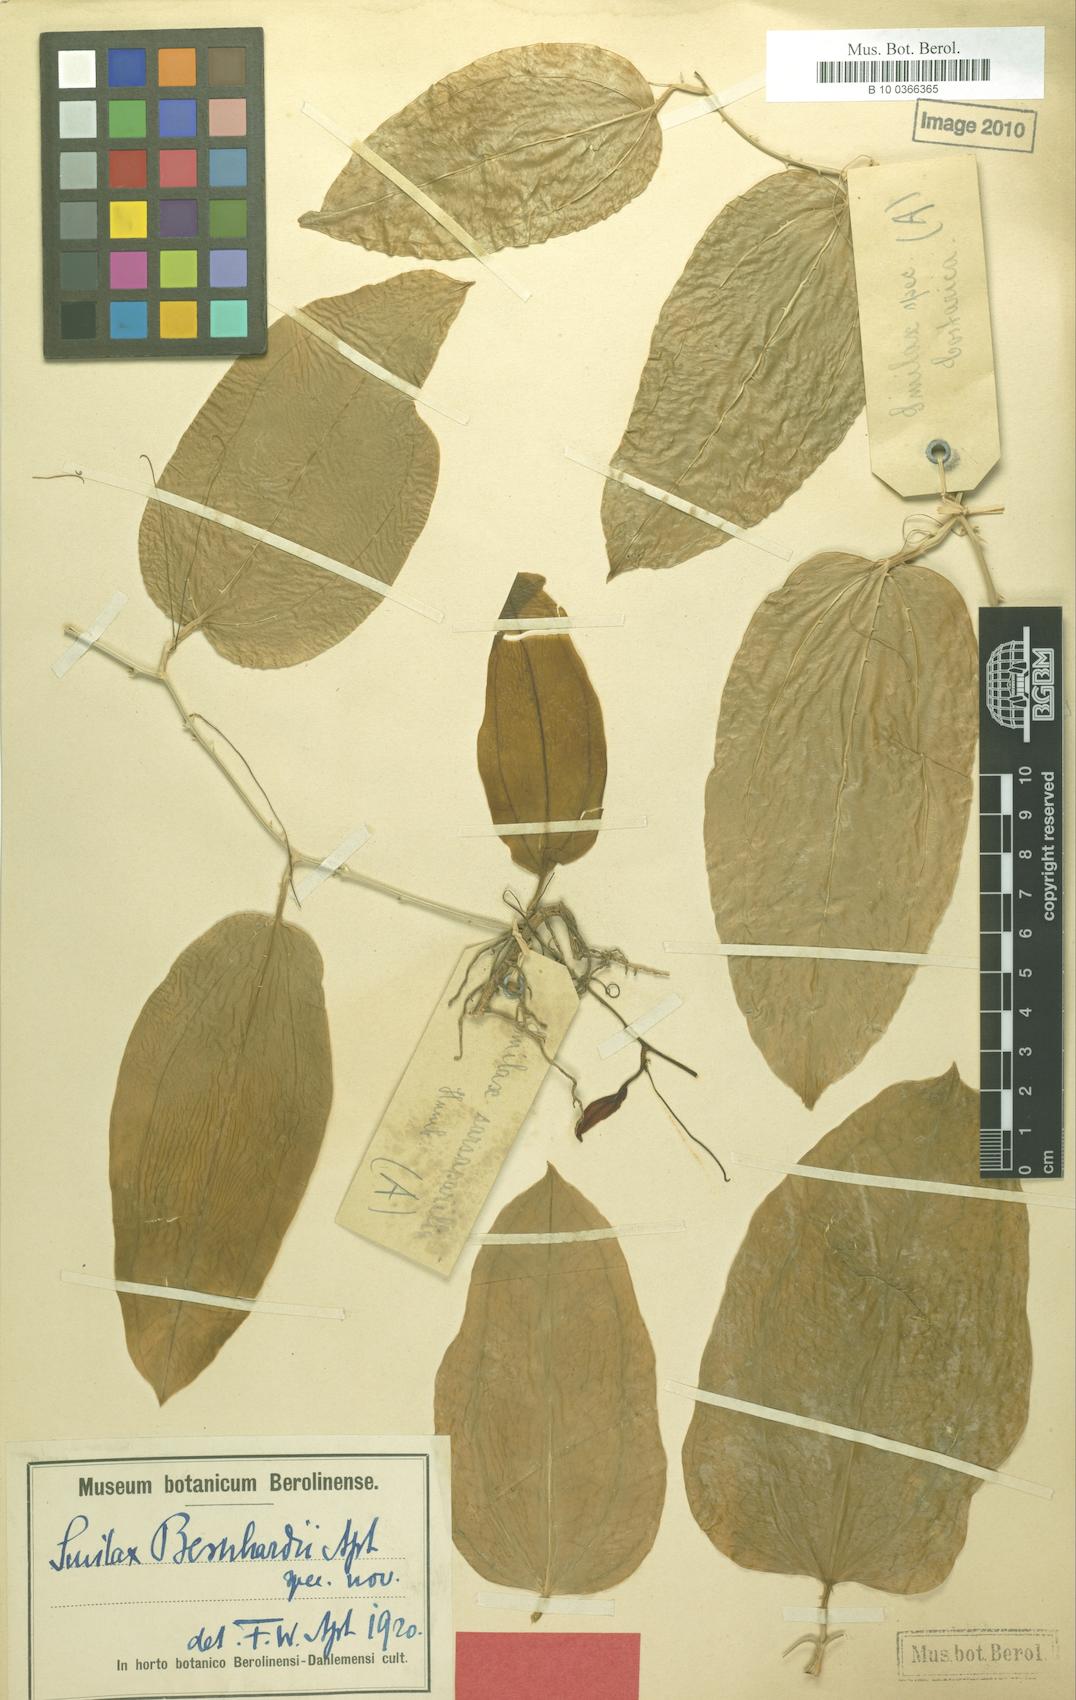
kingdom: Plantae
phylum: Tracheophyta
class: Liliopsida
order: Liliales
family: Smilacaceae
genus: Smilax
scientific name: Smilax officinalis
